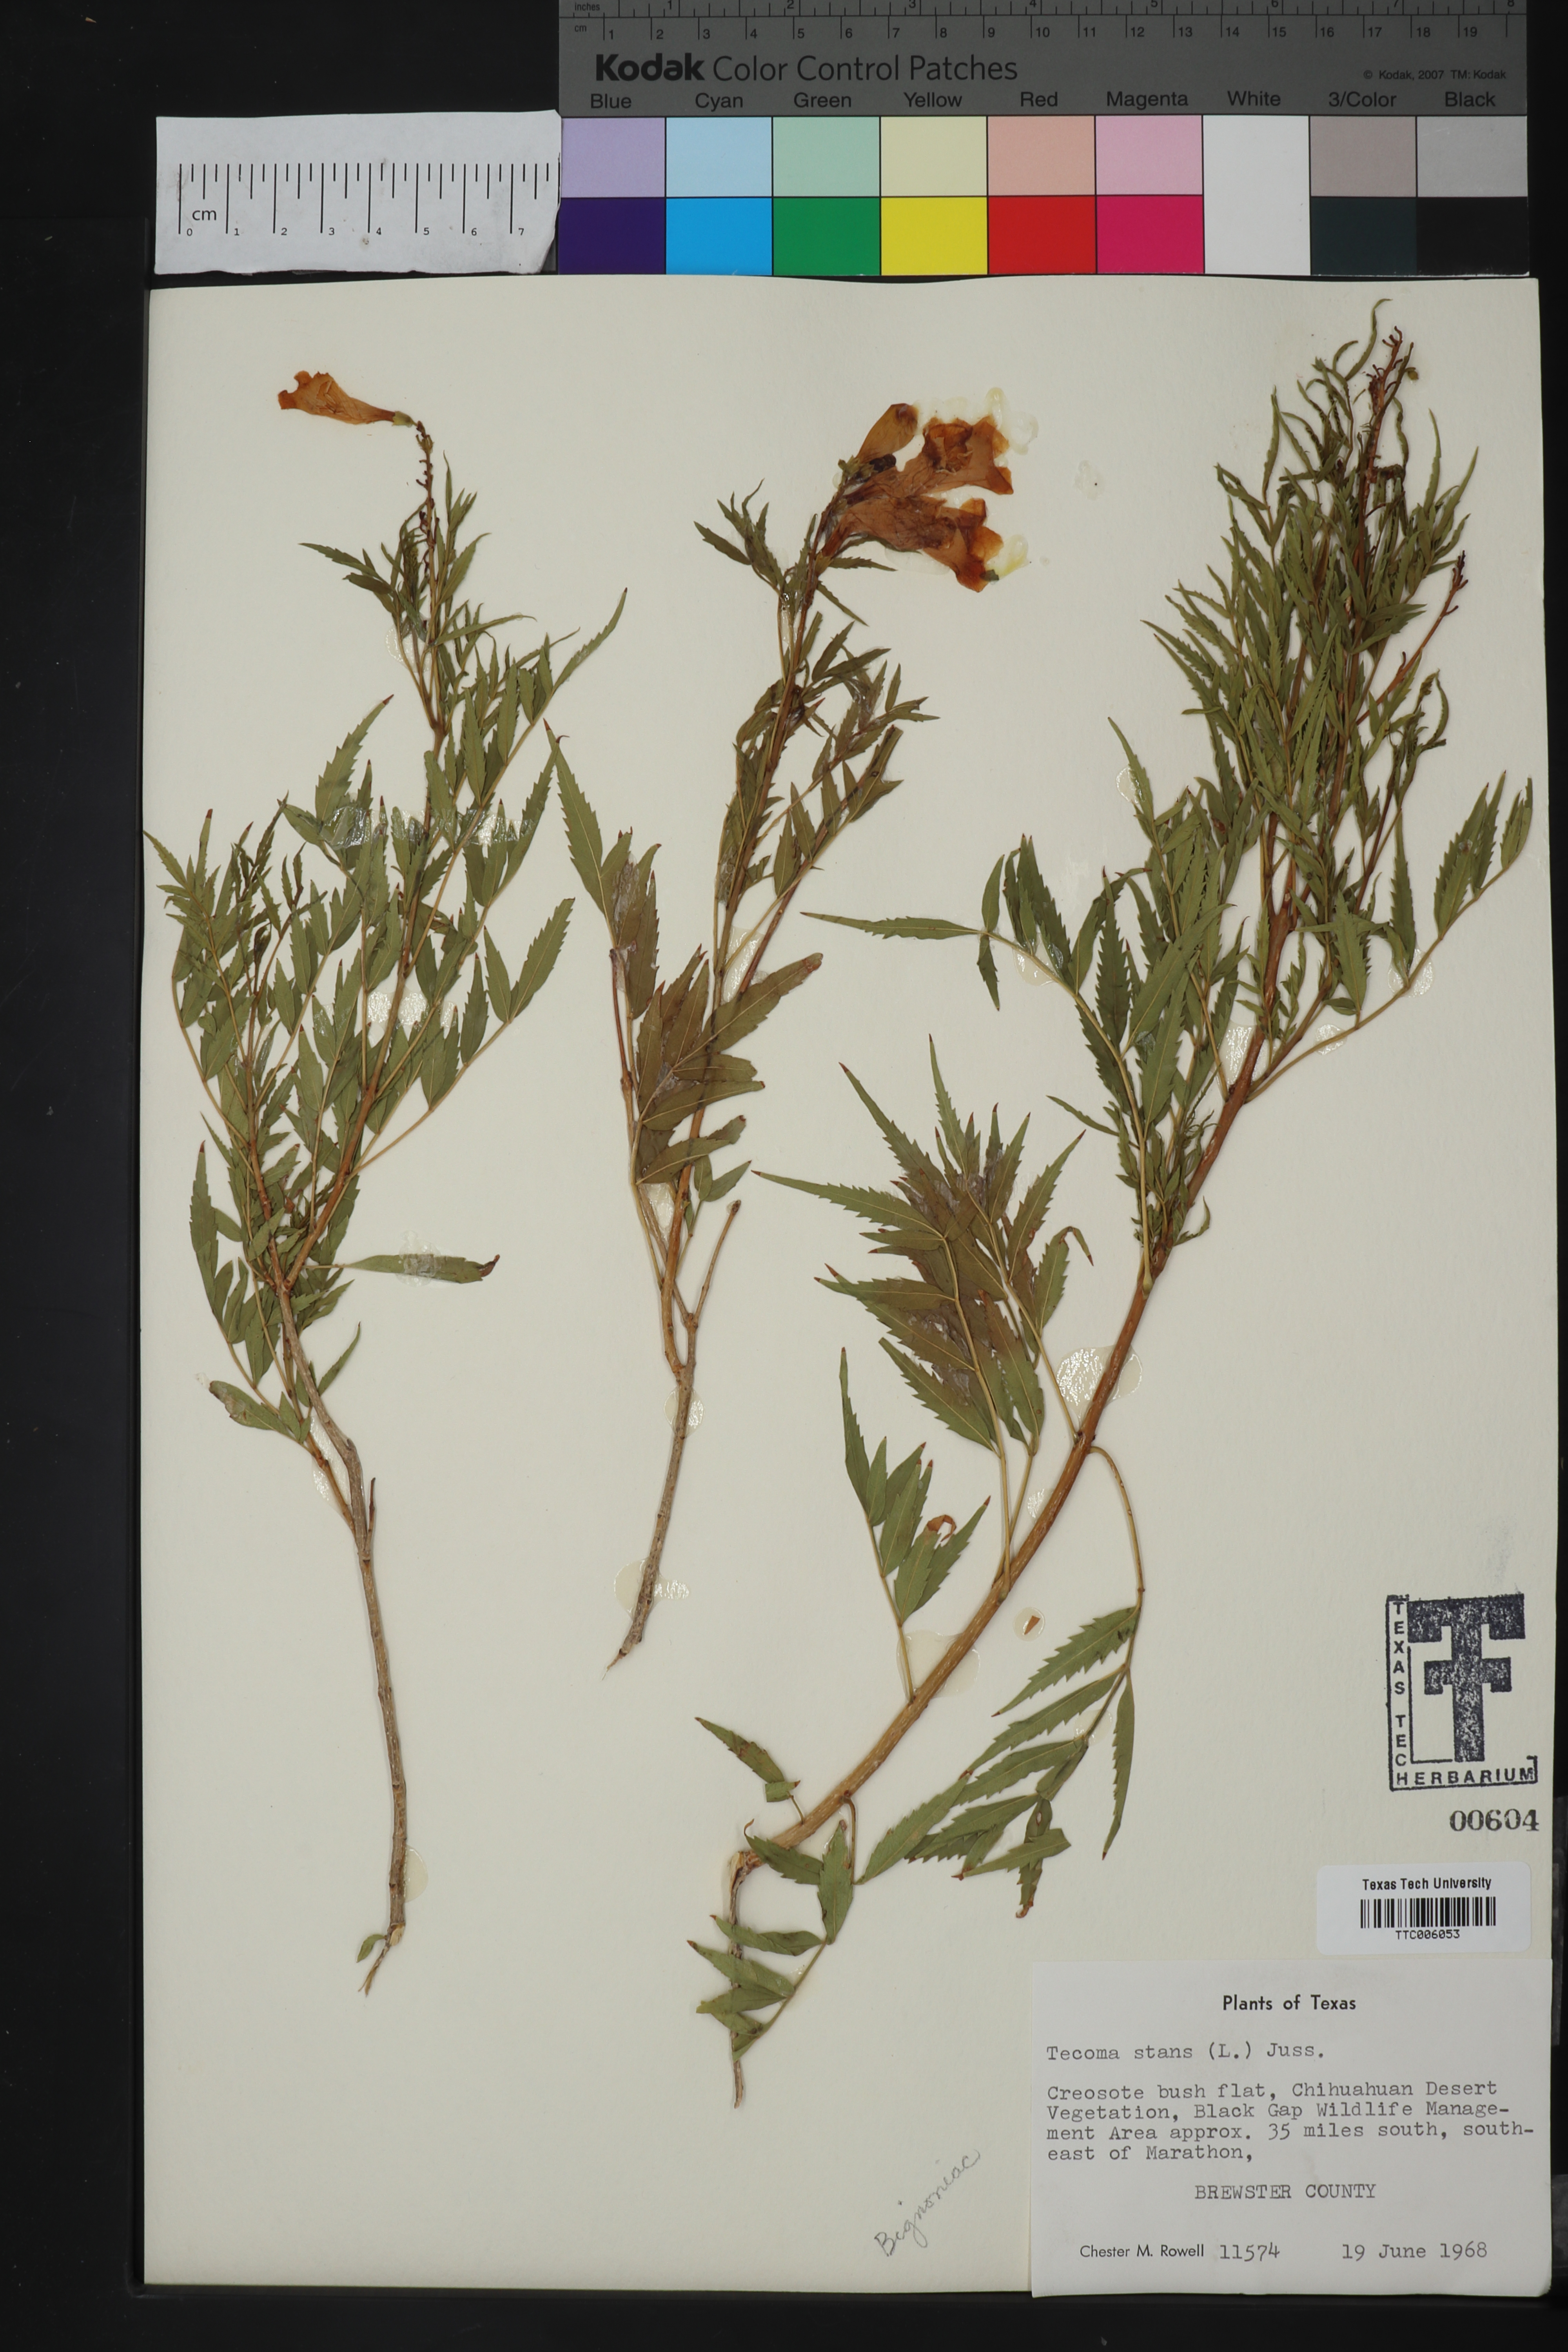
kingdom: Plantae
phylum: Tracheophyta
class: Magnoliopsida
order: Lamiales
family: Bignoniaceae
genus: Tecoma
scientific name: Tecoma stans
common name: Yellow trumpetbush
